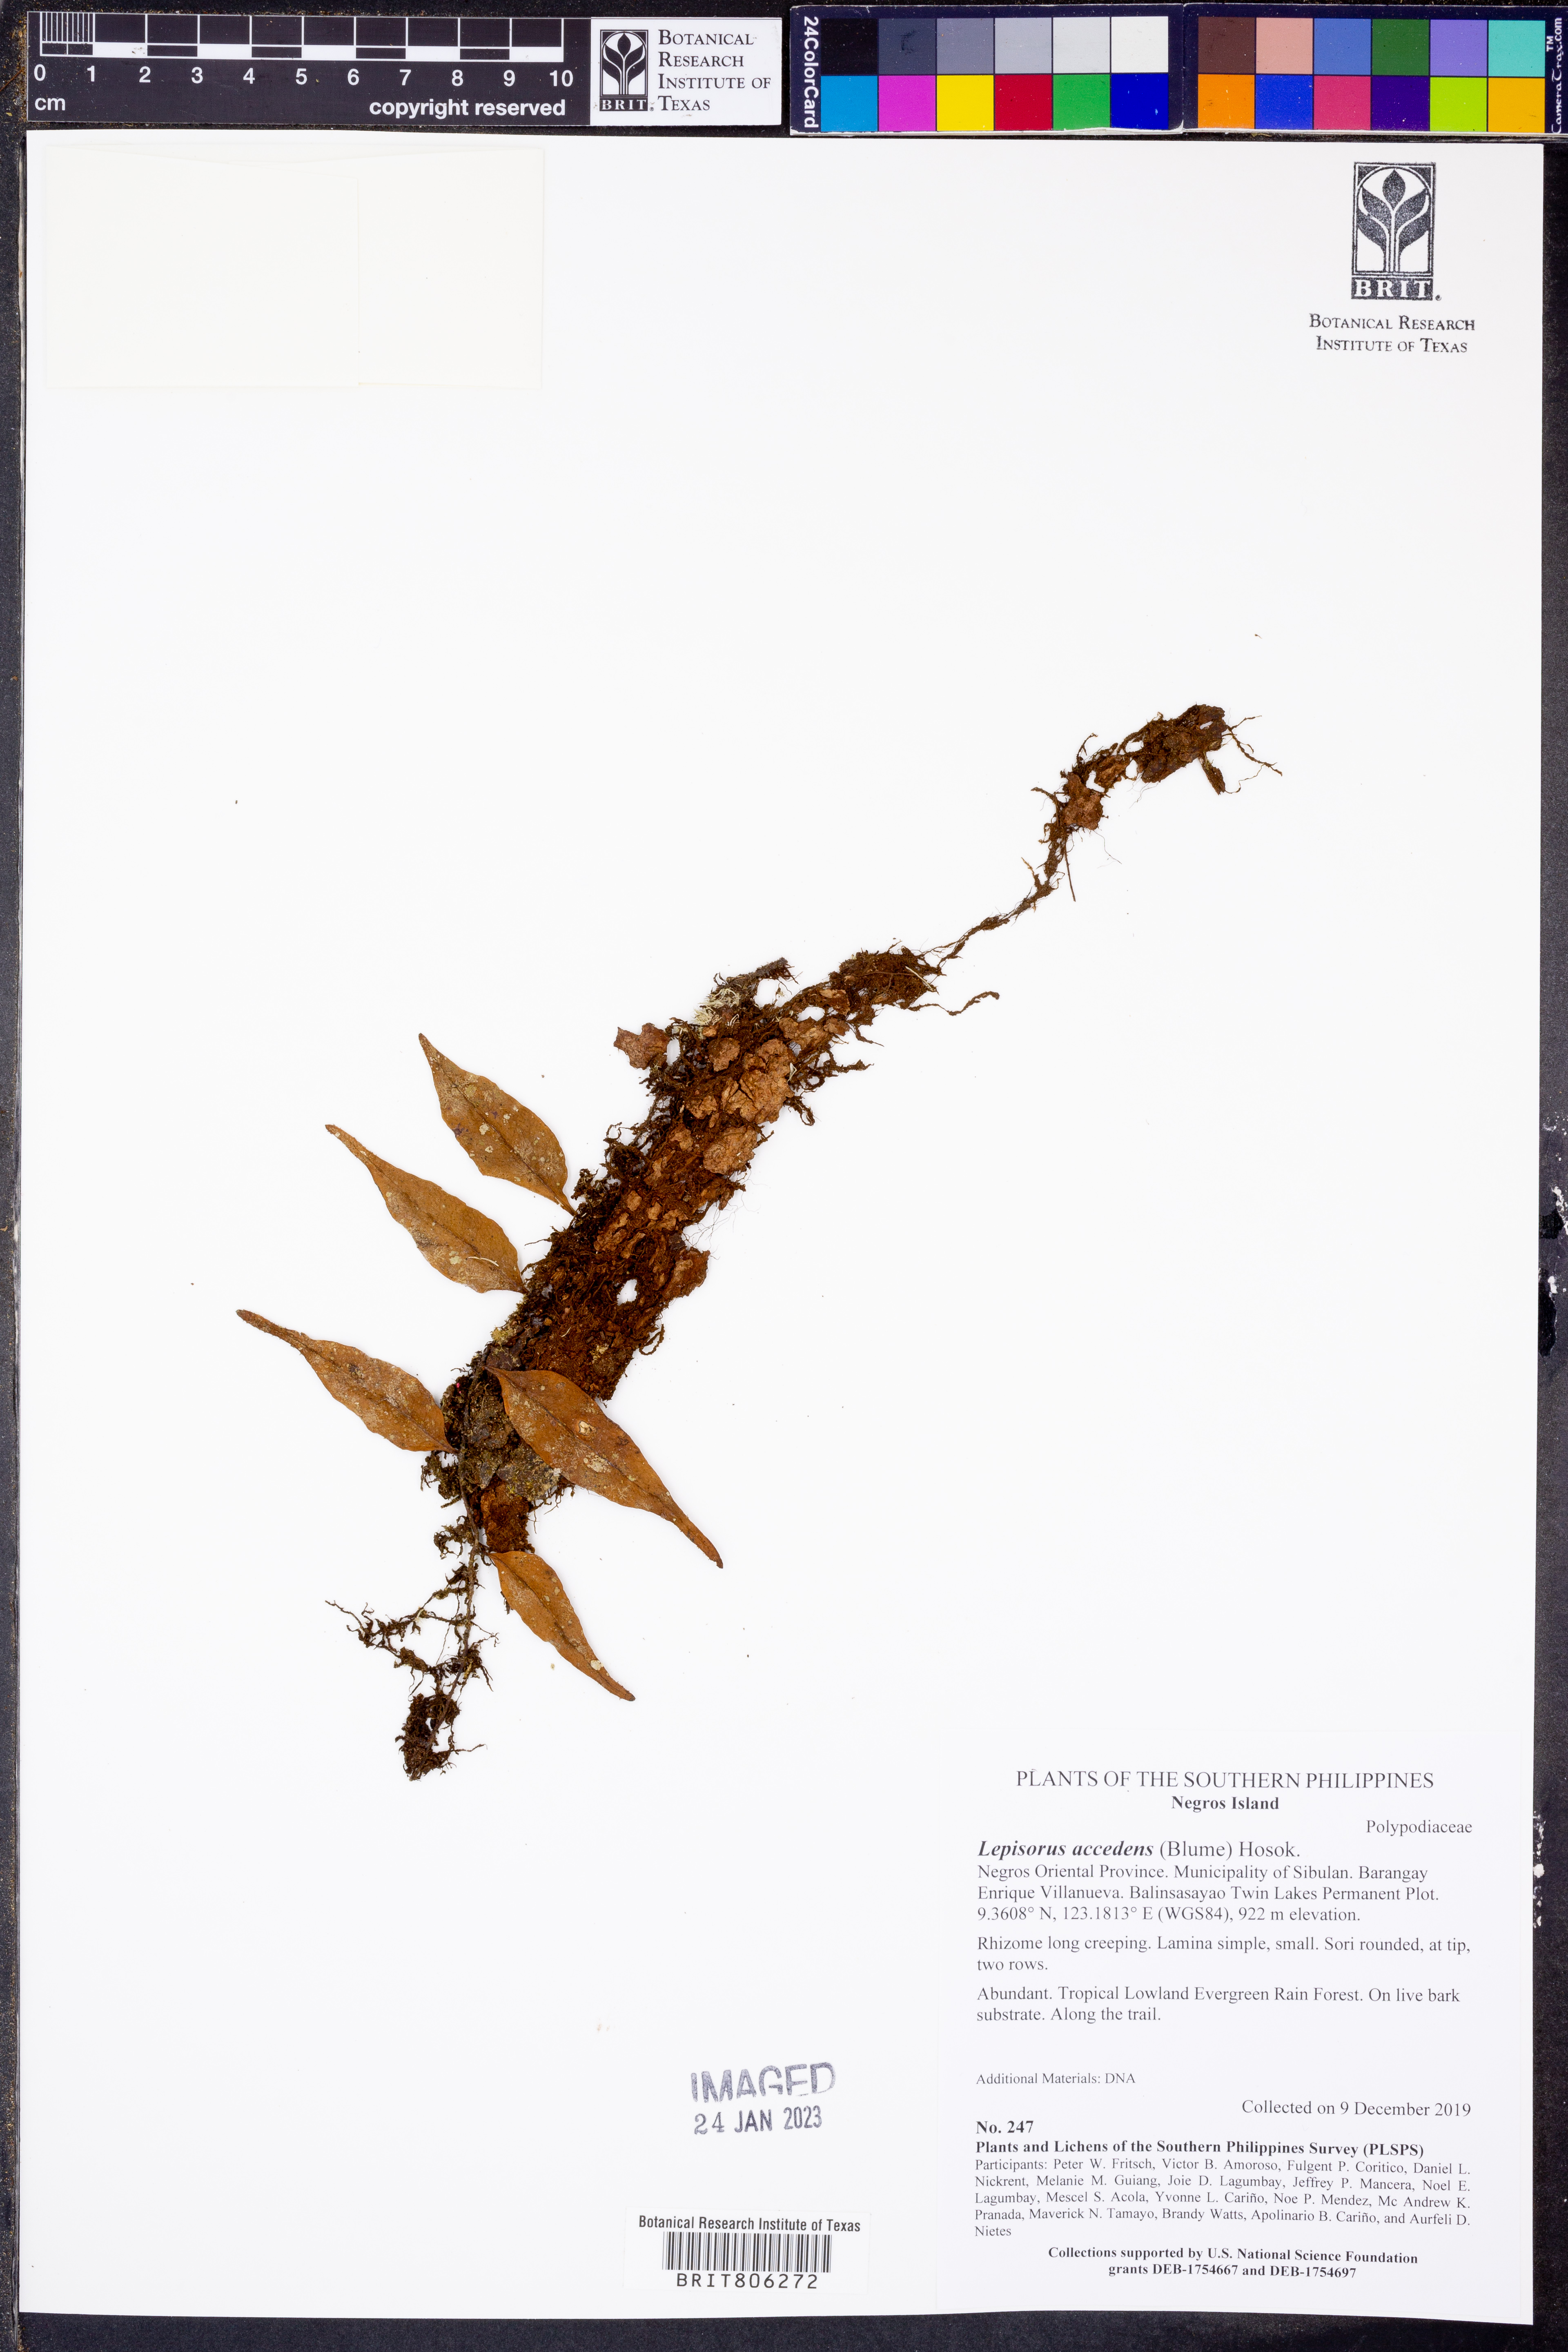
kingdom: Plantae
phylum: Tracheophyta
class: Polypodiopsida
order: Polypodiales
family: Polypodiaceae
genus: Lepisorus
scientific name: Lepisorus accedens
